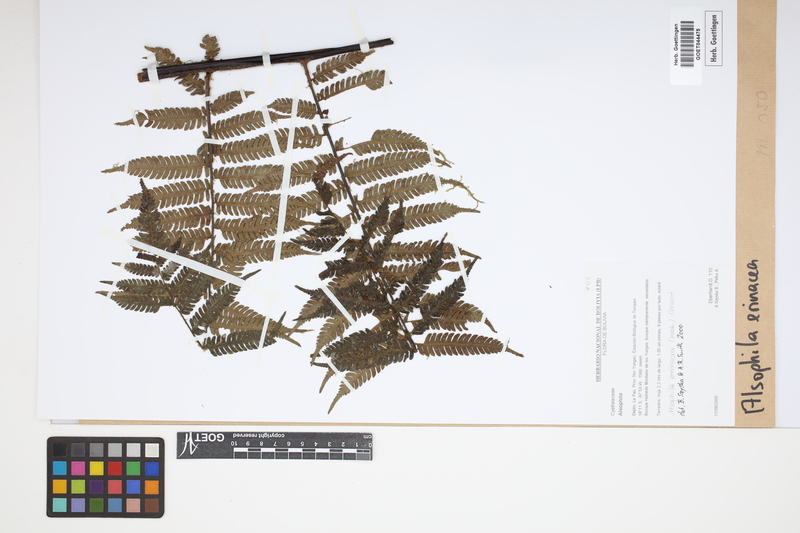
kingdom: Plantae
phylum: Tracheophyta
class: Polypodiopsida
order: Cyatheales
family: Cyatheaceae
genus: Alsophila
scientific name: Alsophila erinacea
